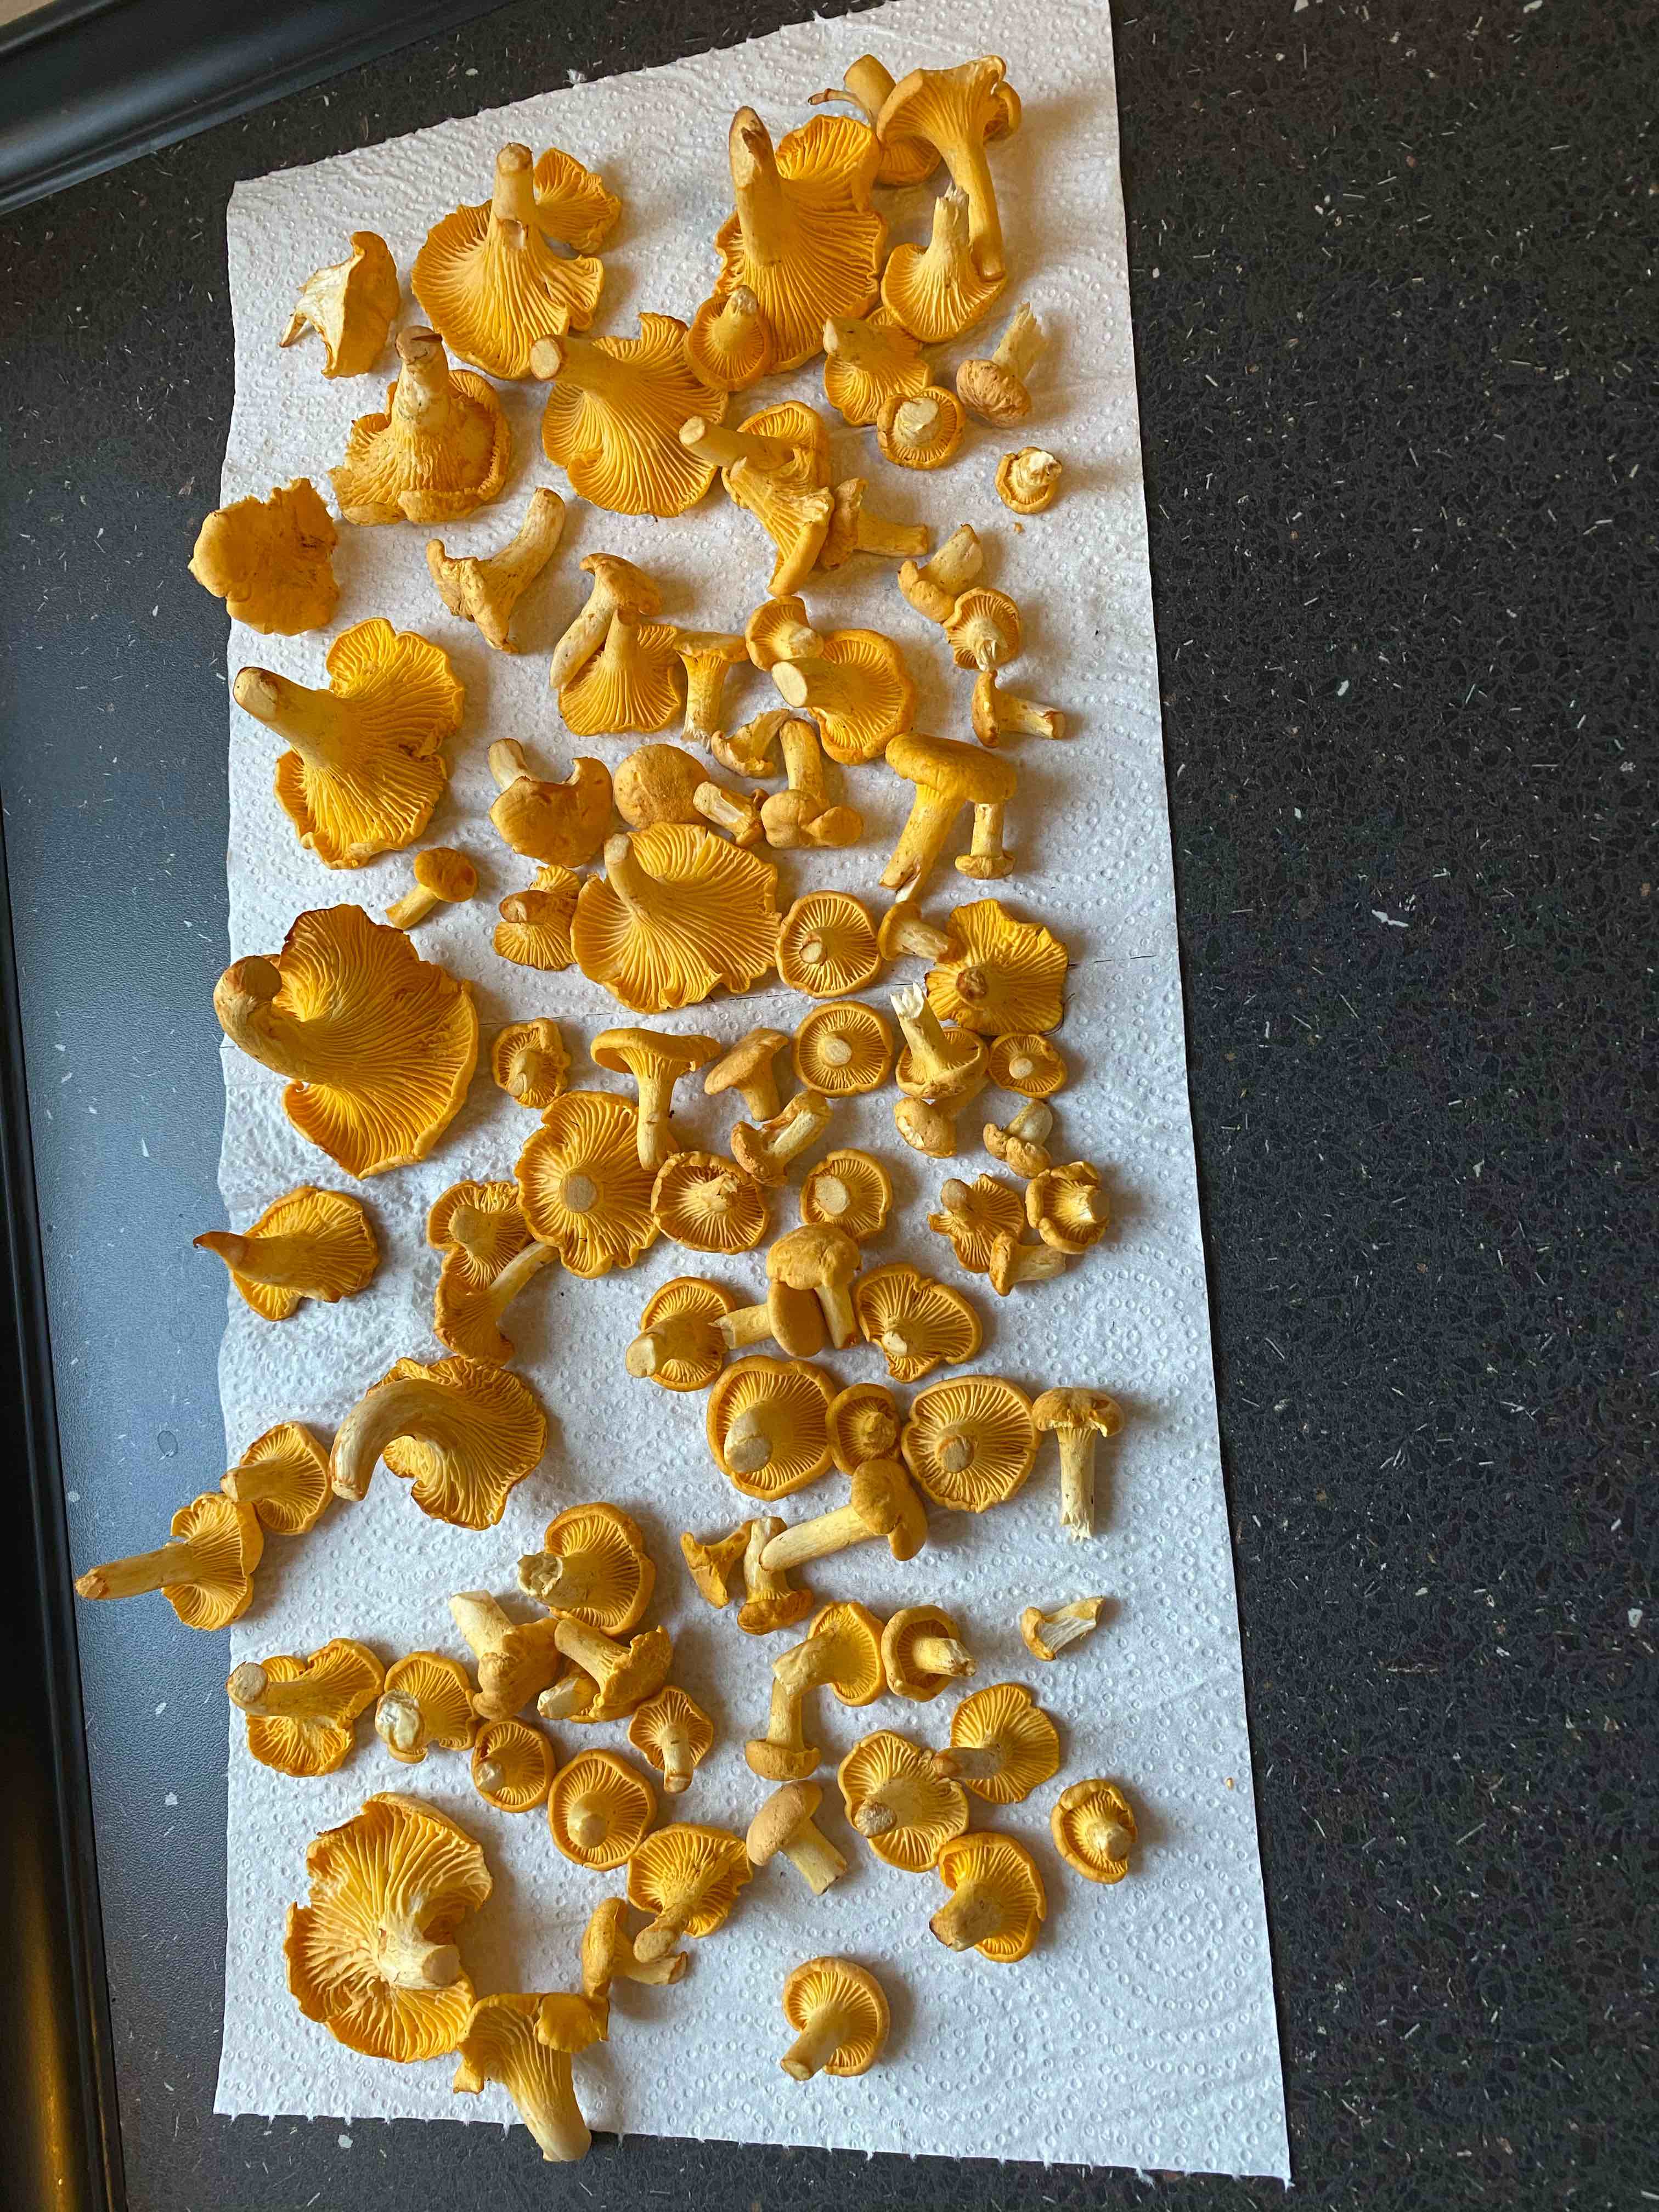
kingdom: Fungi
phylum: Basidiomycota
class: Agaricomycetes
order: Cantharellales
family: Hydnaceae
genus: Cantharellus
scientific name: Cantharellus cibarius
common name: almindelig kantarel
